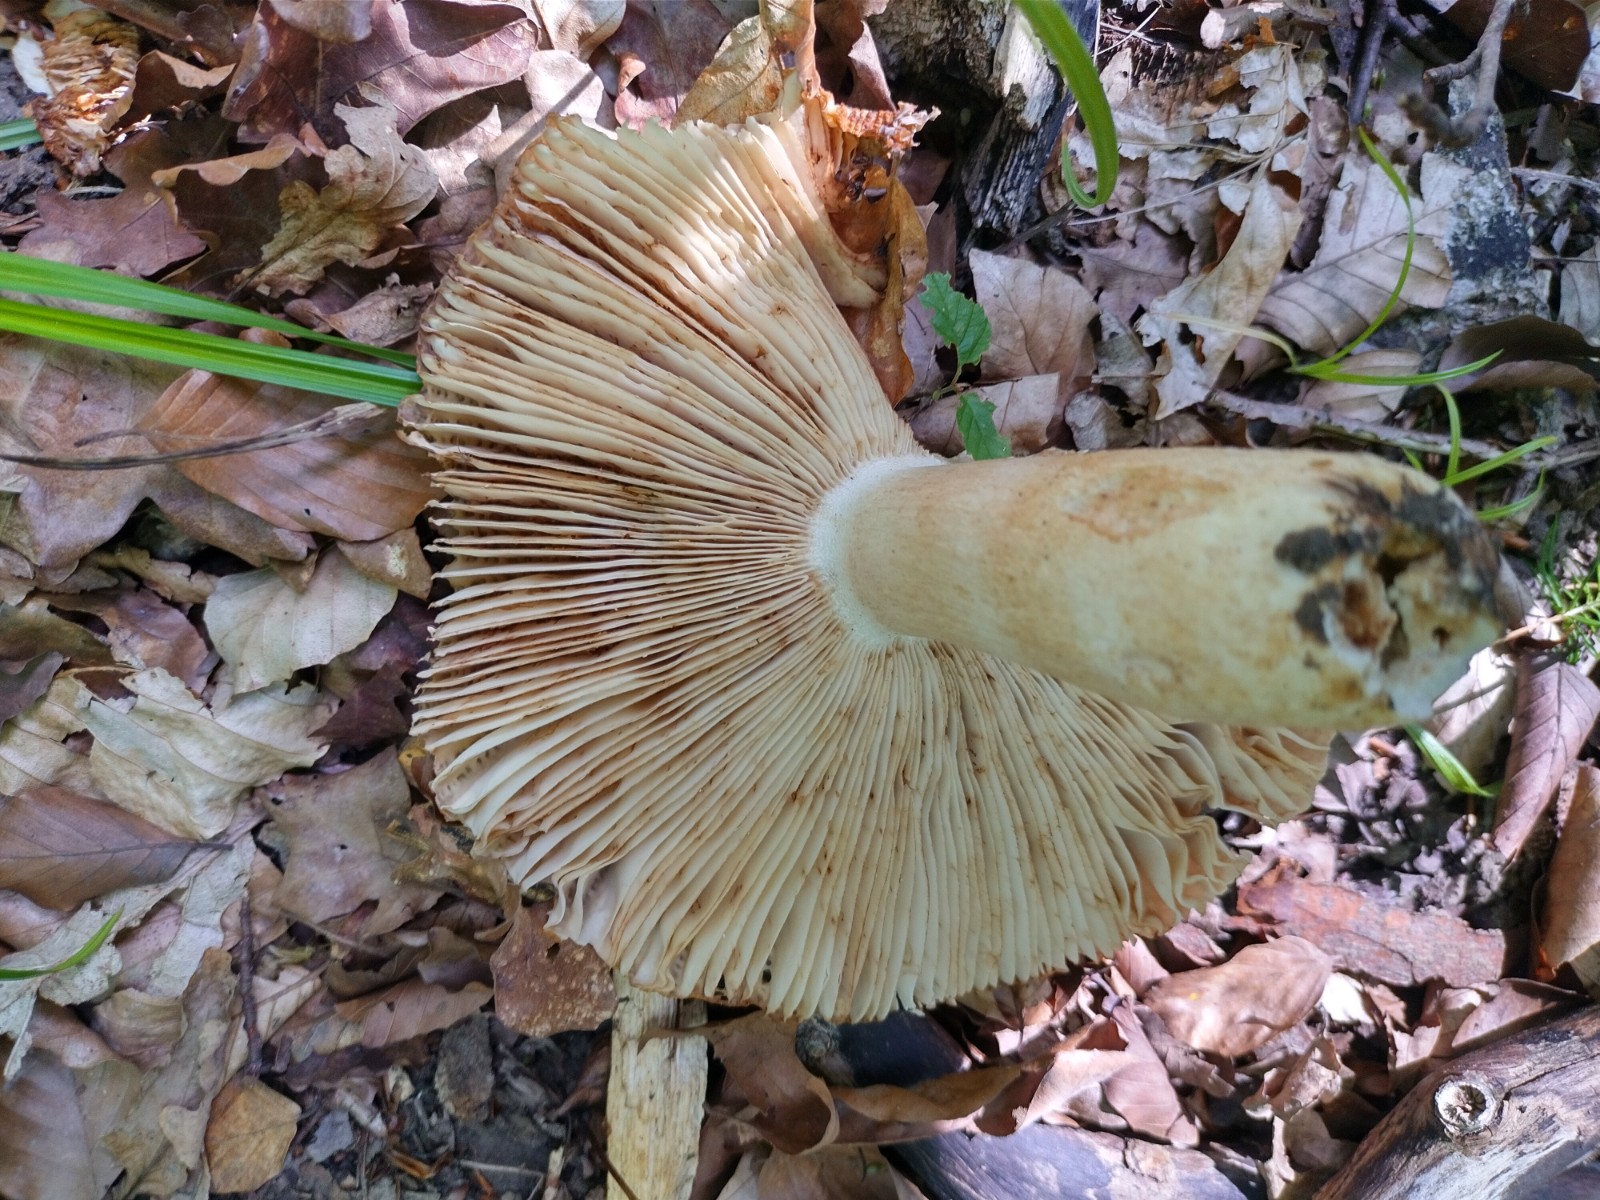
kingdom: Fungi
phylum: Basidiomycota
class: Agaricomycetes
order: Russulales
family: Russulaceae
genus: Russula
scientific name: Russula foetens
